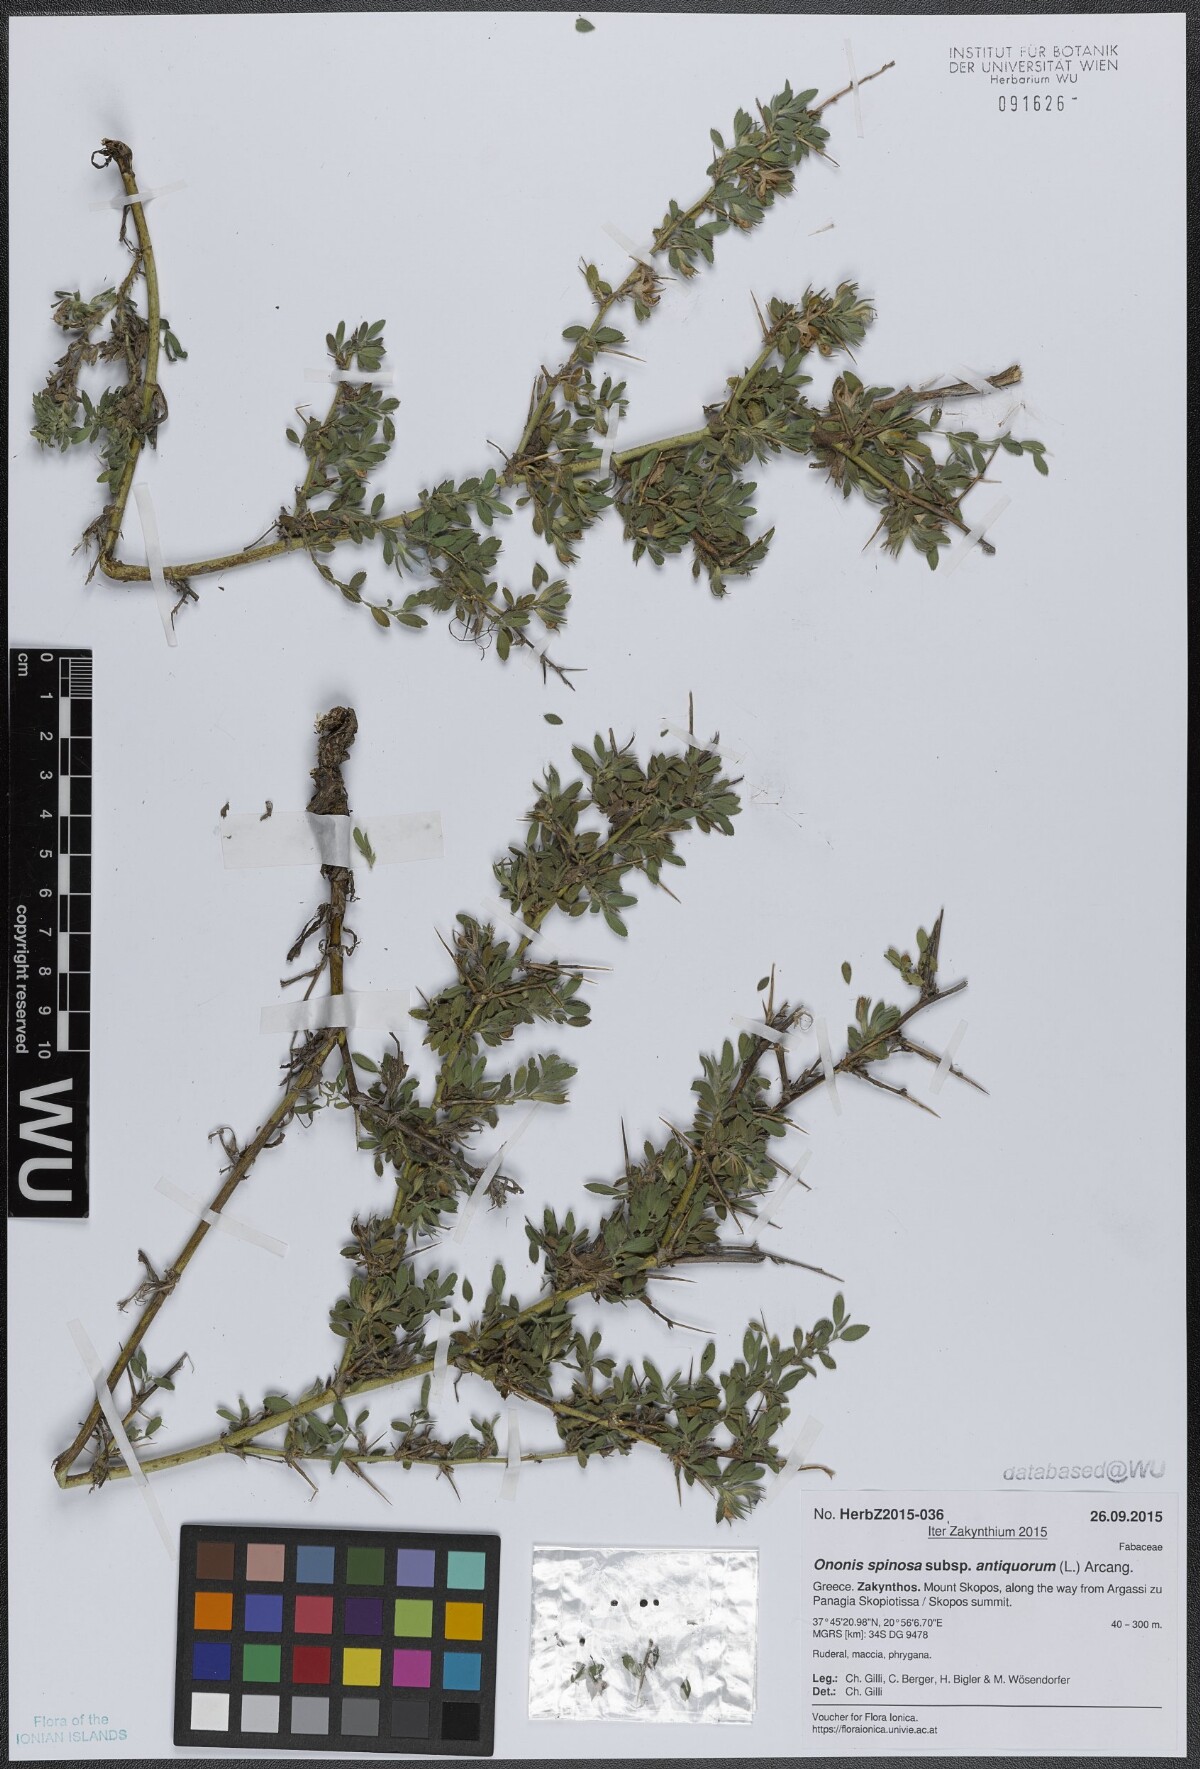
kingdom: Plantae
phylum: Tracheophyta
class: Magnoliopsida
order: Fabales
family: Fabaceae
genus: Ononis
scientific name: Ononis spinosa
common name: Spiny restharrow
